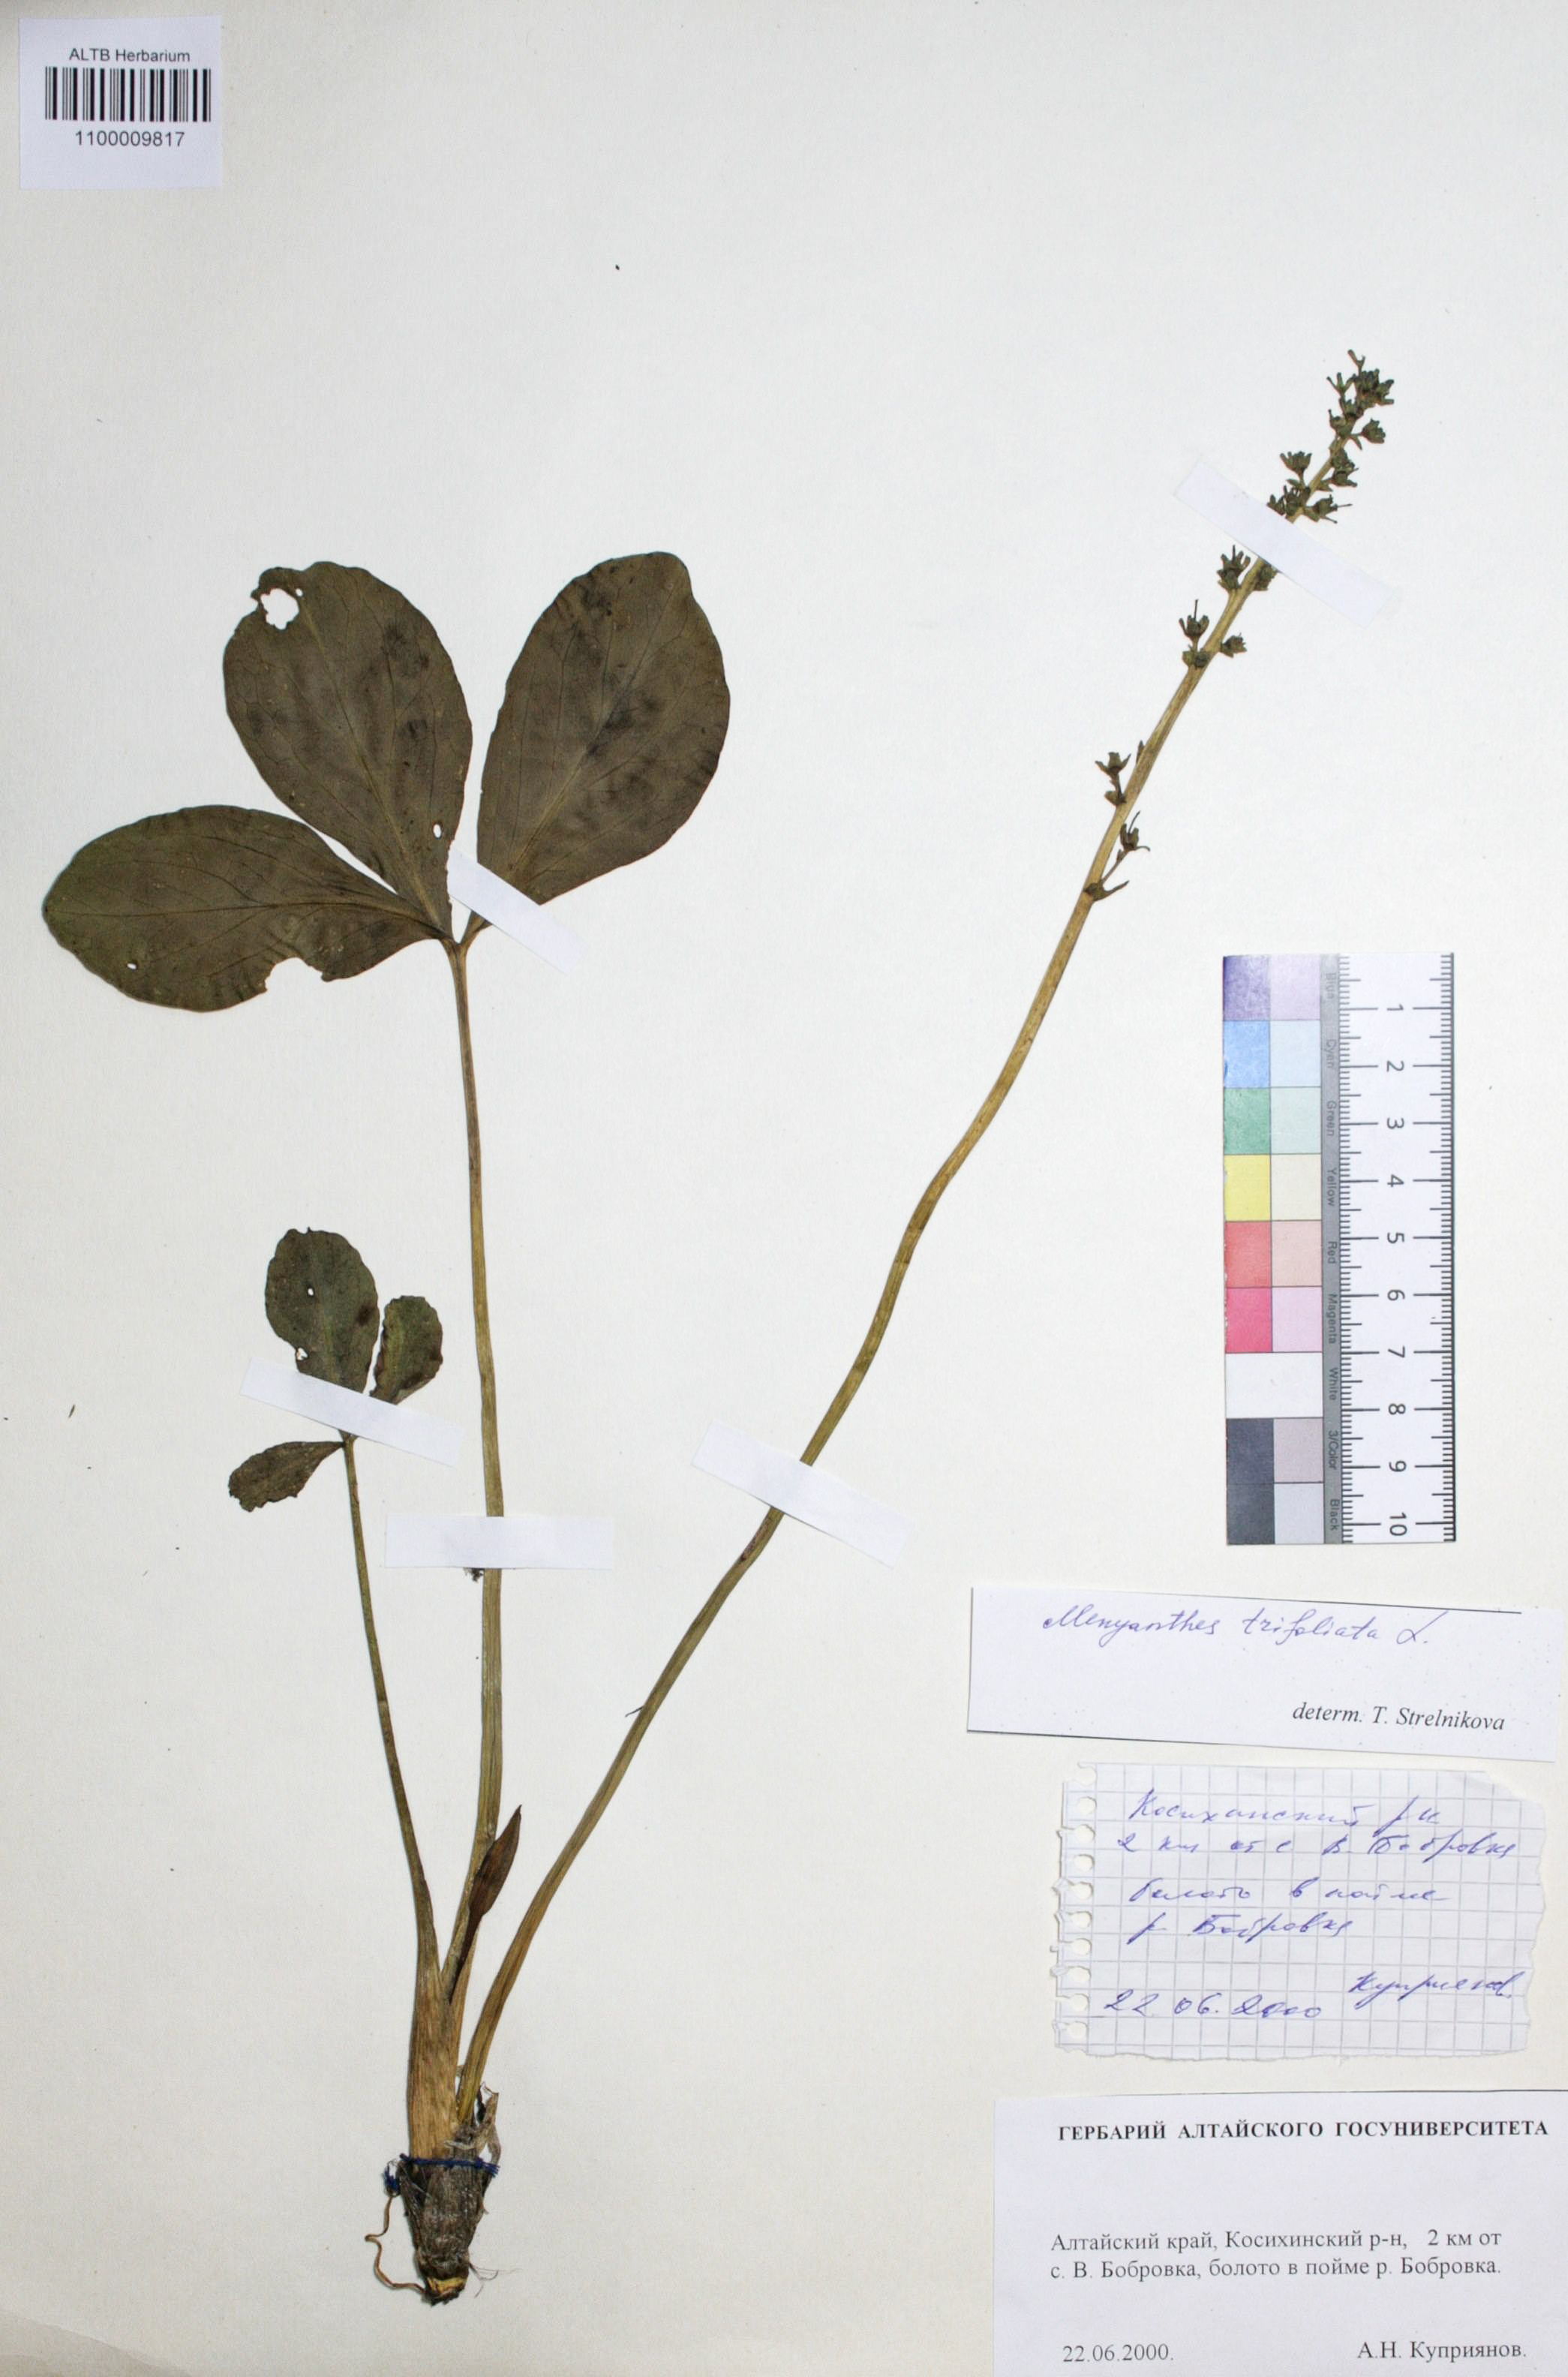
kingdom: Plantae
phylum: Tracheophyta
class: Magnoliopsida
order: Asterales
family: Menyanthaceae
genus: Menyanthes
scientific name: Menyanthes trifoliata
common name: Bogbean
